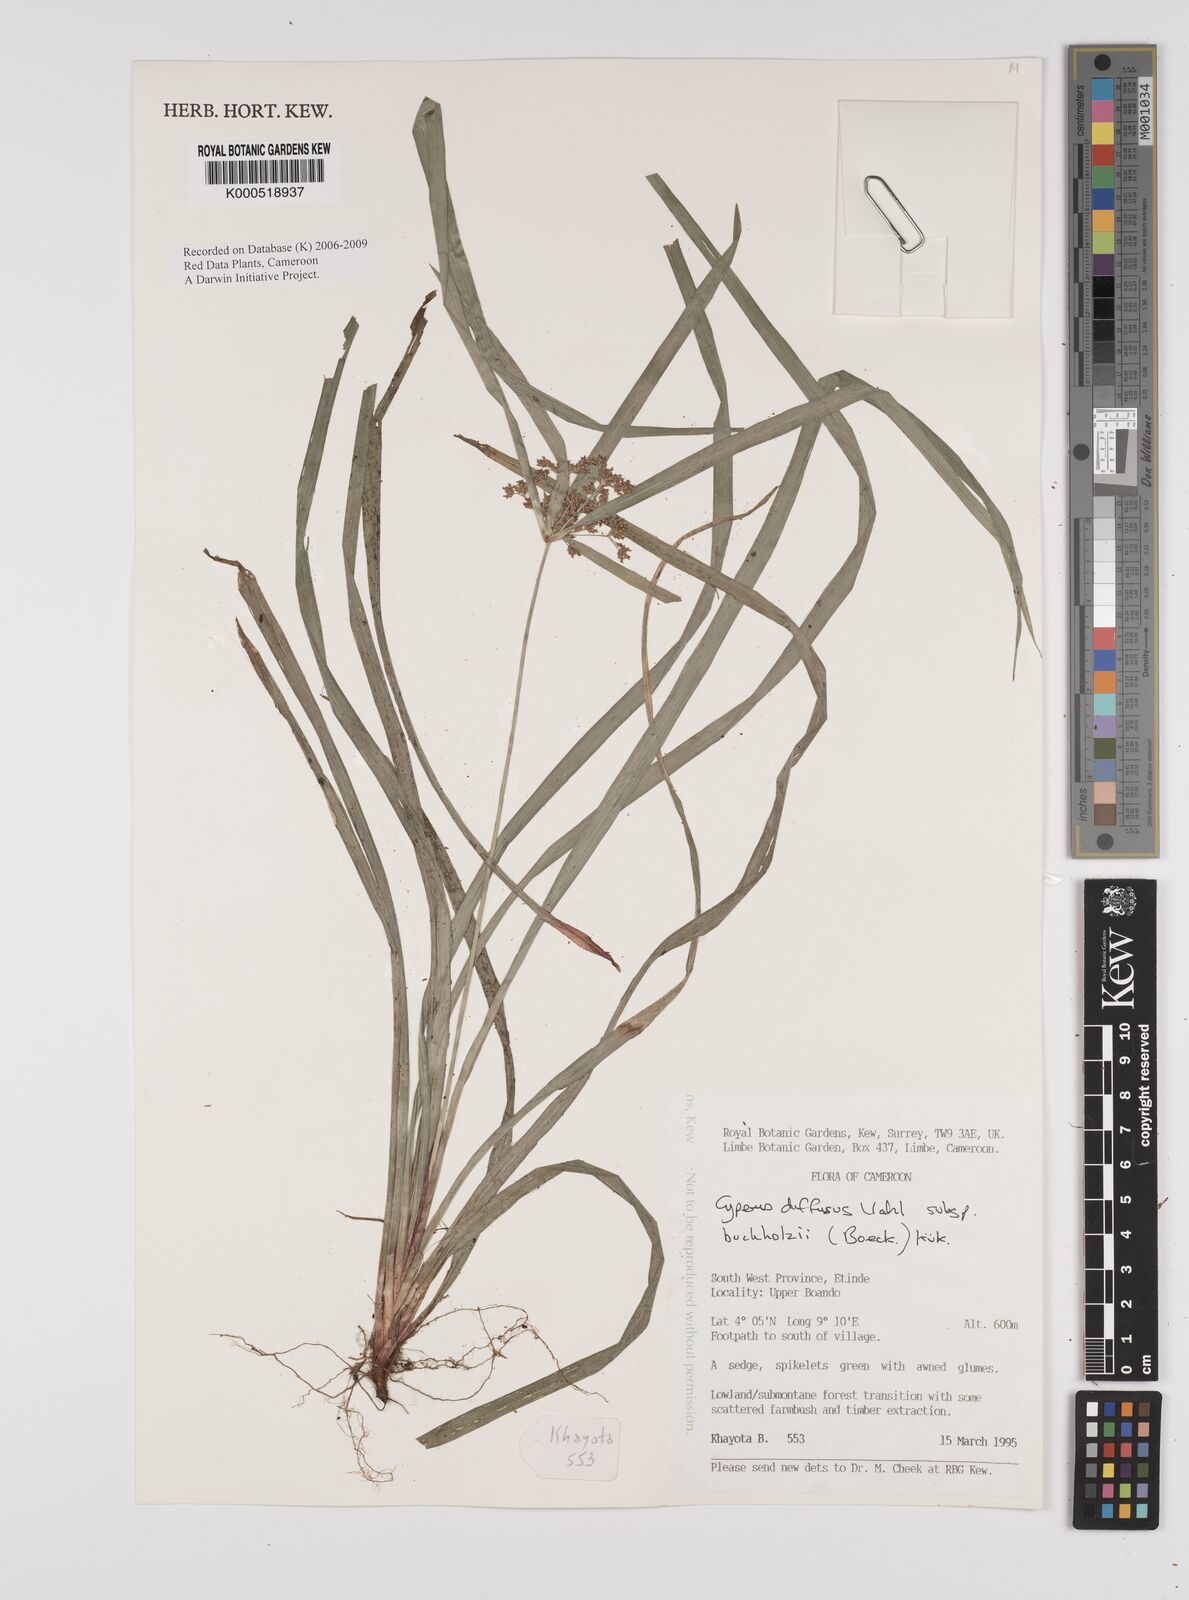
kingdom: Plantae
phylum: Tracheophyta
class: Liliopsida
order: Poales
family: Cyperaceae
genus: Cyperus
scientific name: Cyperus laxus
